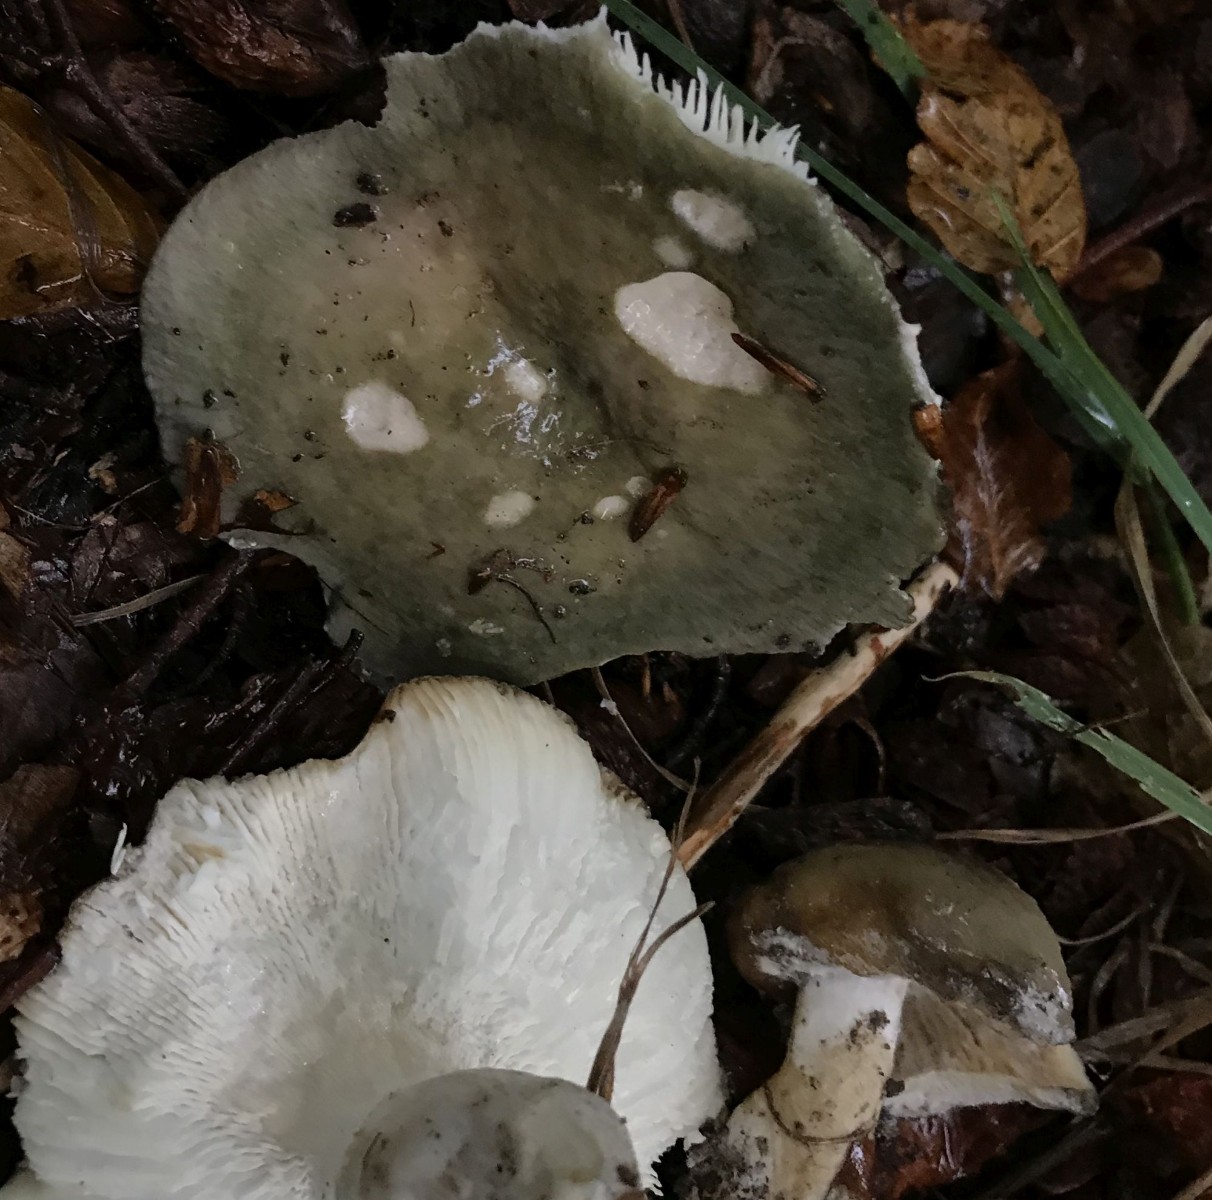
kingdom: Fungi
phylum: Basidiomycota
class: Agaricomycetes
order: Russulales
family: Russulaceae
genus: Russula
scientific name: Russula heterophylla
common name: gaffelbladet skørhat
